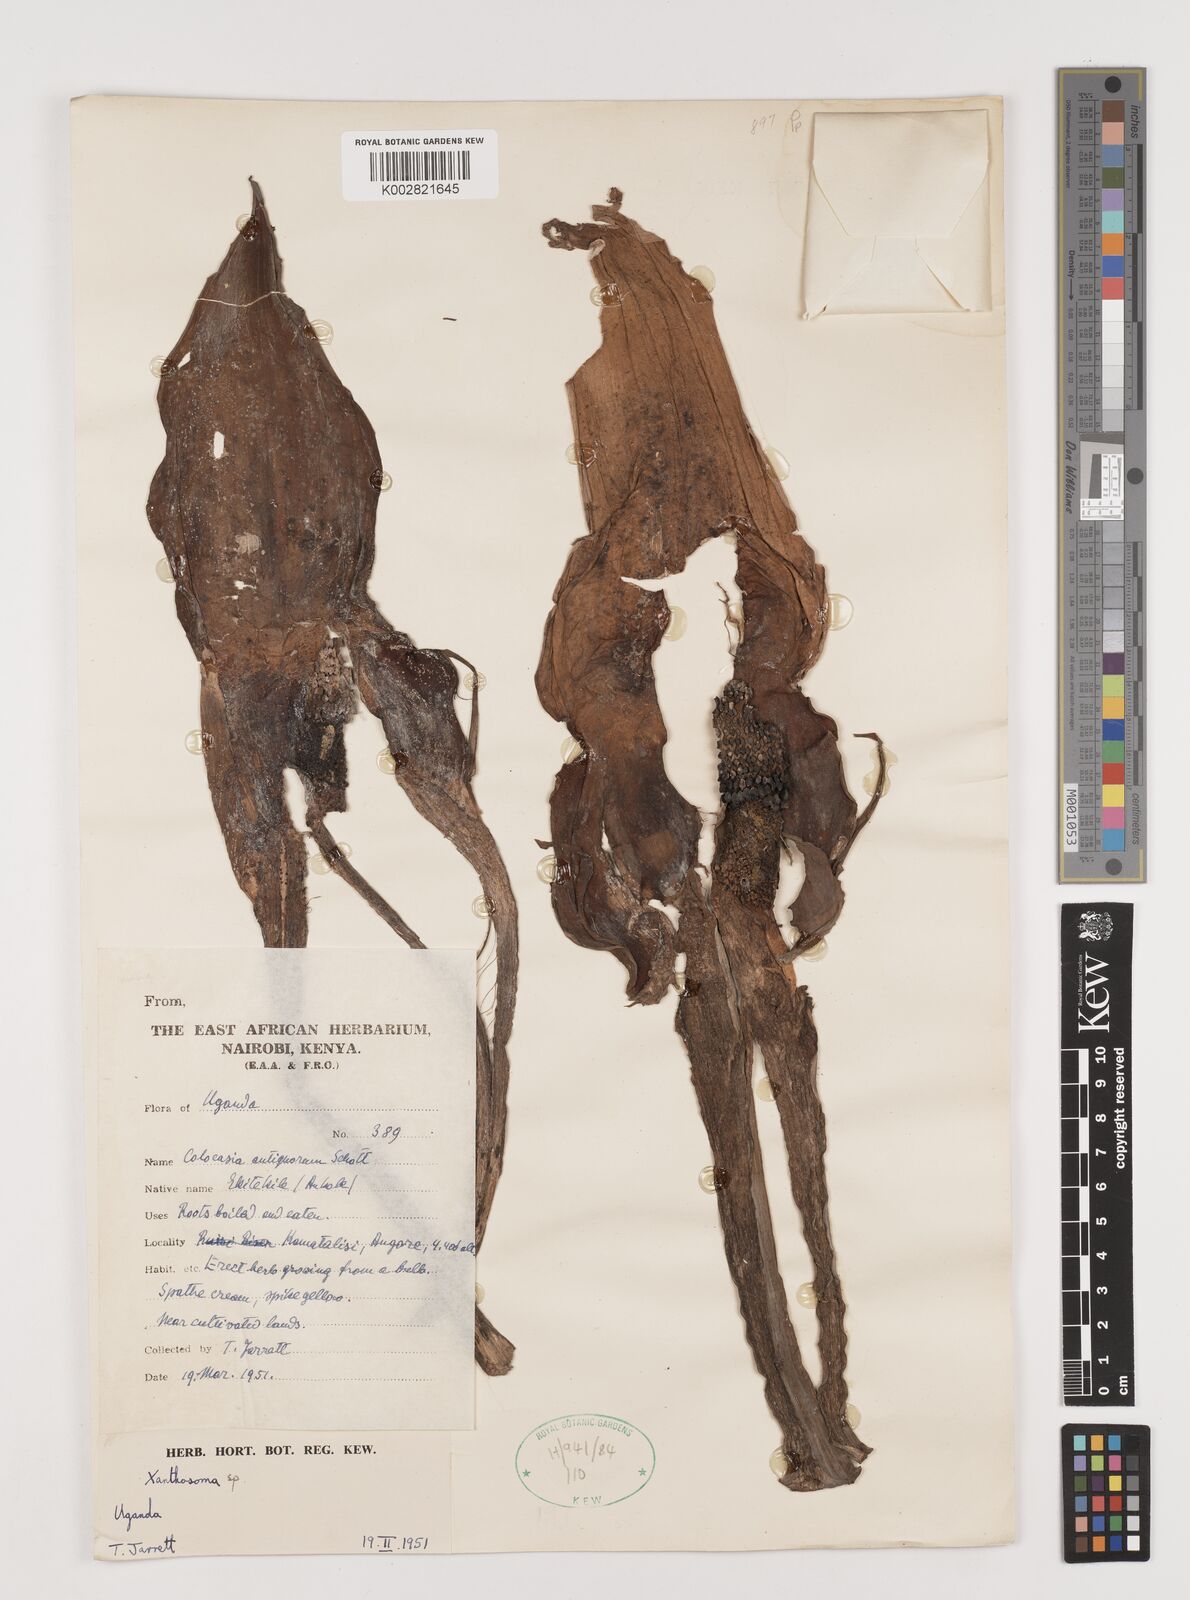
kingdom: Plantae
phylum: Tracheophyta
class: Liliopsida
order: Alismatales
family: Araceae
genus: Xanthosoma
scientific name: Xanthosoma
